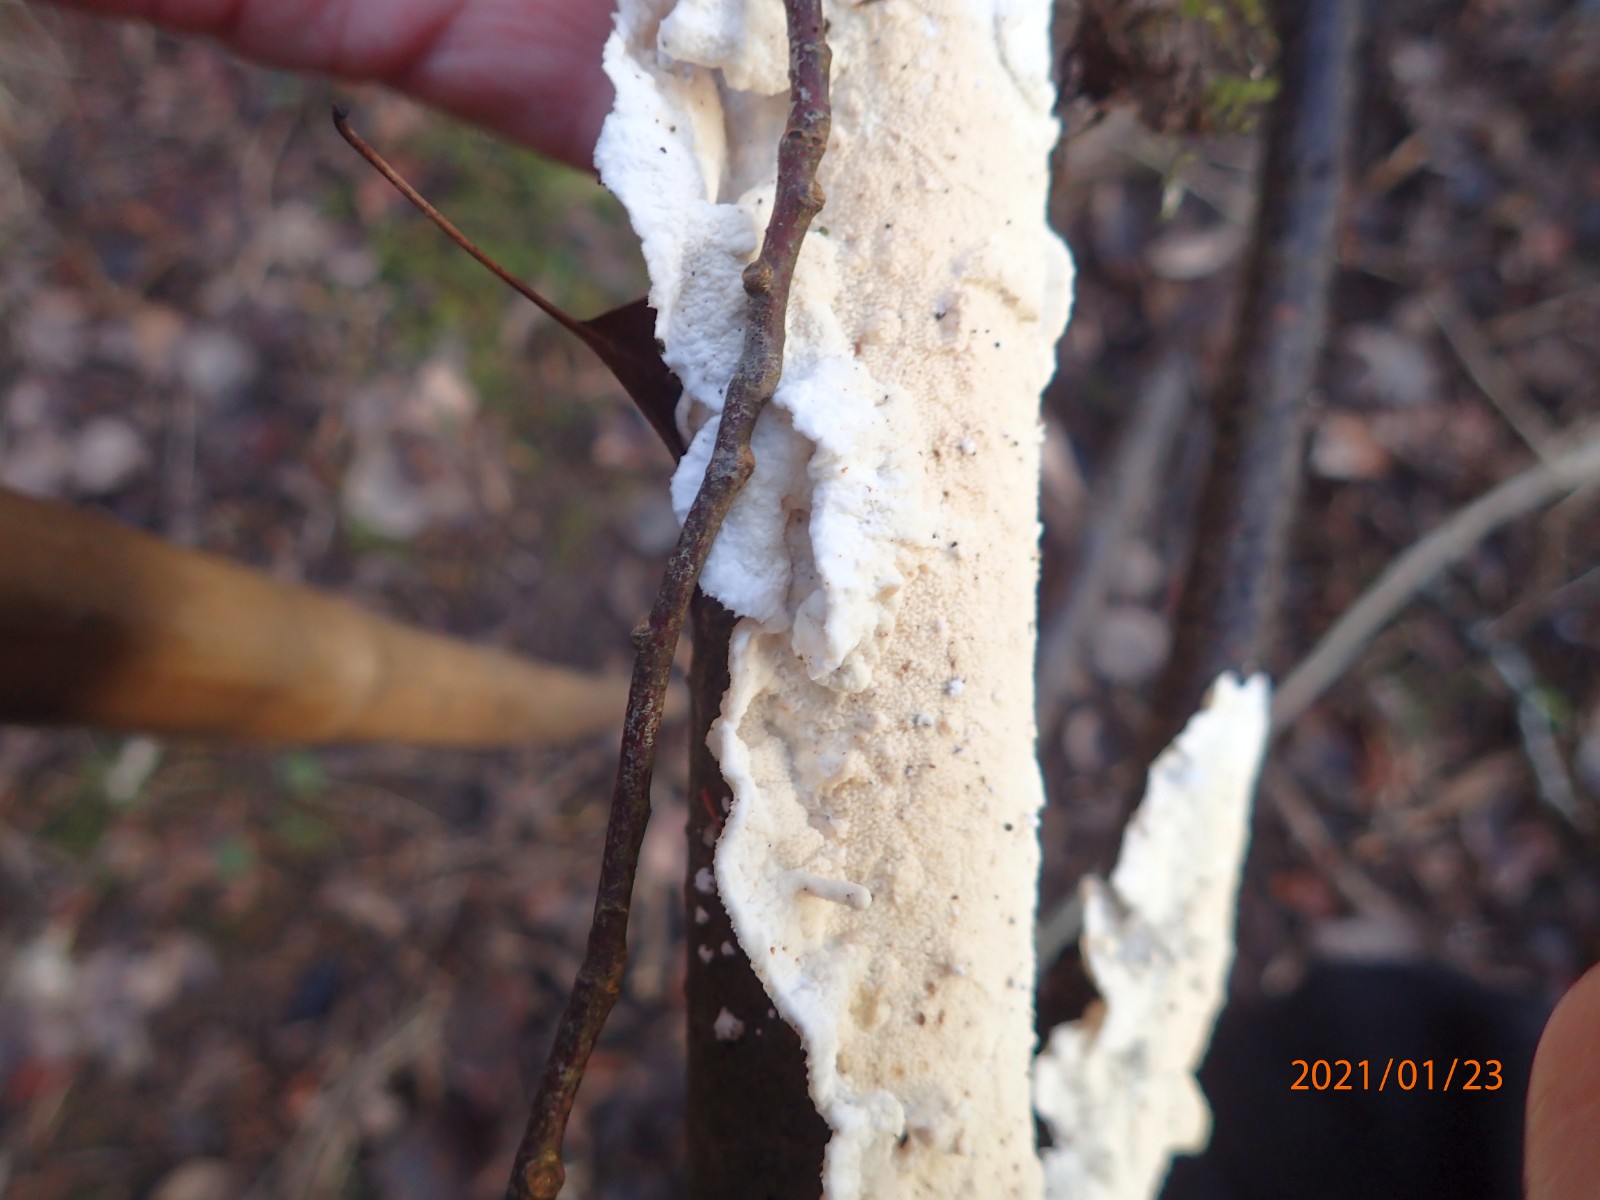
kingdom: Fungi
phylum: Basidiomycota
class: Agaricomycetes
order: Polyporales
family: Irpicaceae
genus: Byssomerulius
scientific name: Byssomerulius corium
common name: læder-åresvamp
